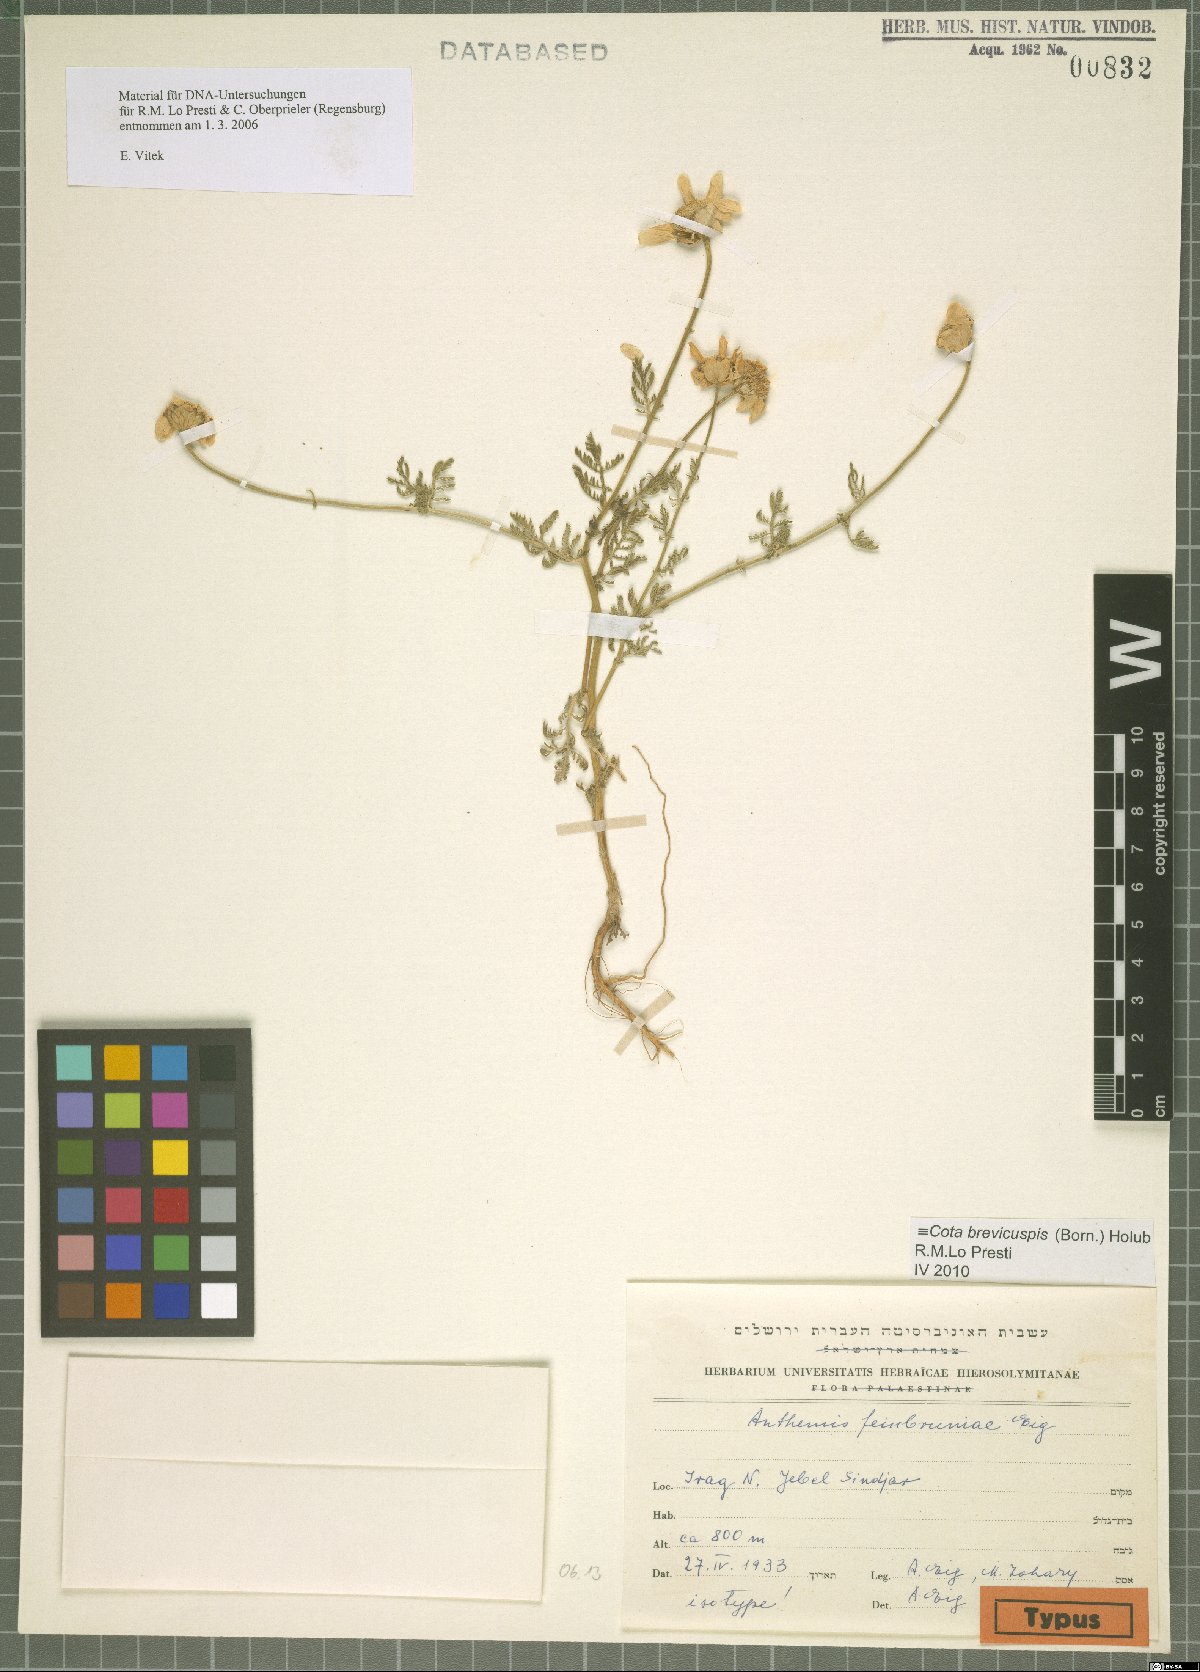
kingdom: Plantae
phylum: Tracheophyta
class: Magnoliopsida
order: Asterales
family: Asteraceae
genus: Cota
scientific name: Cota brevicuspis
